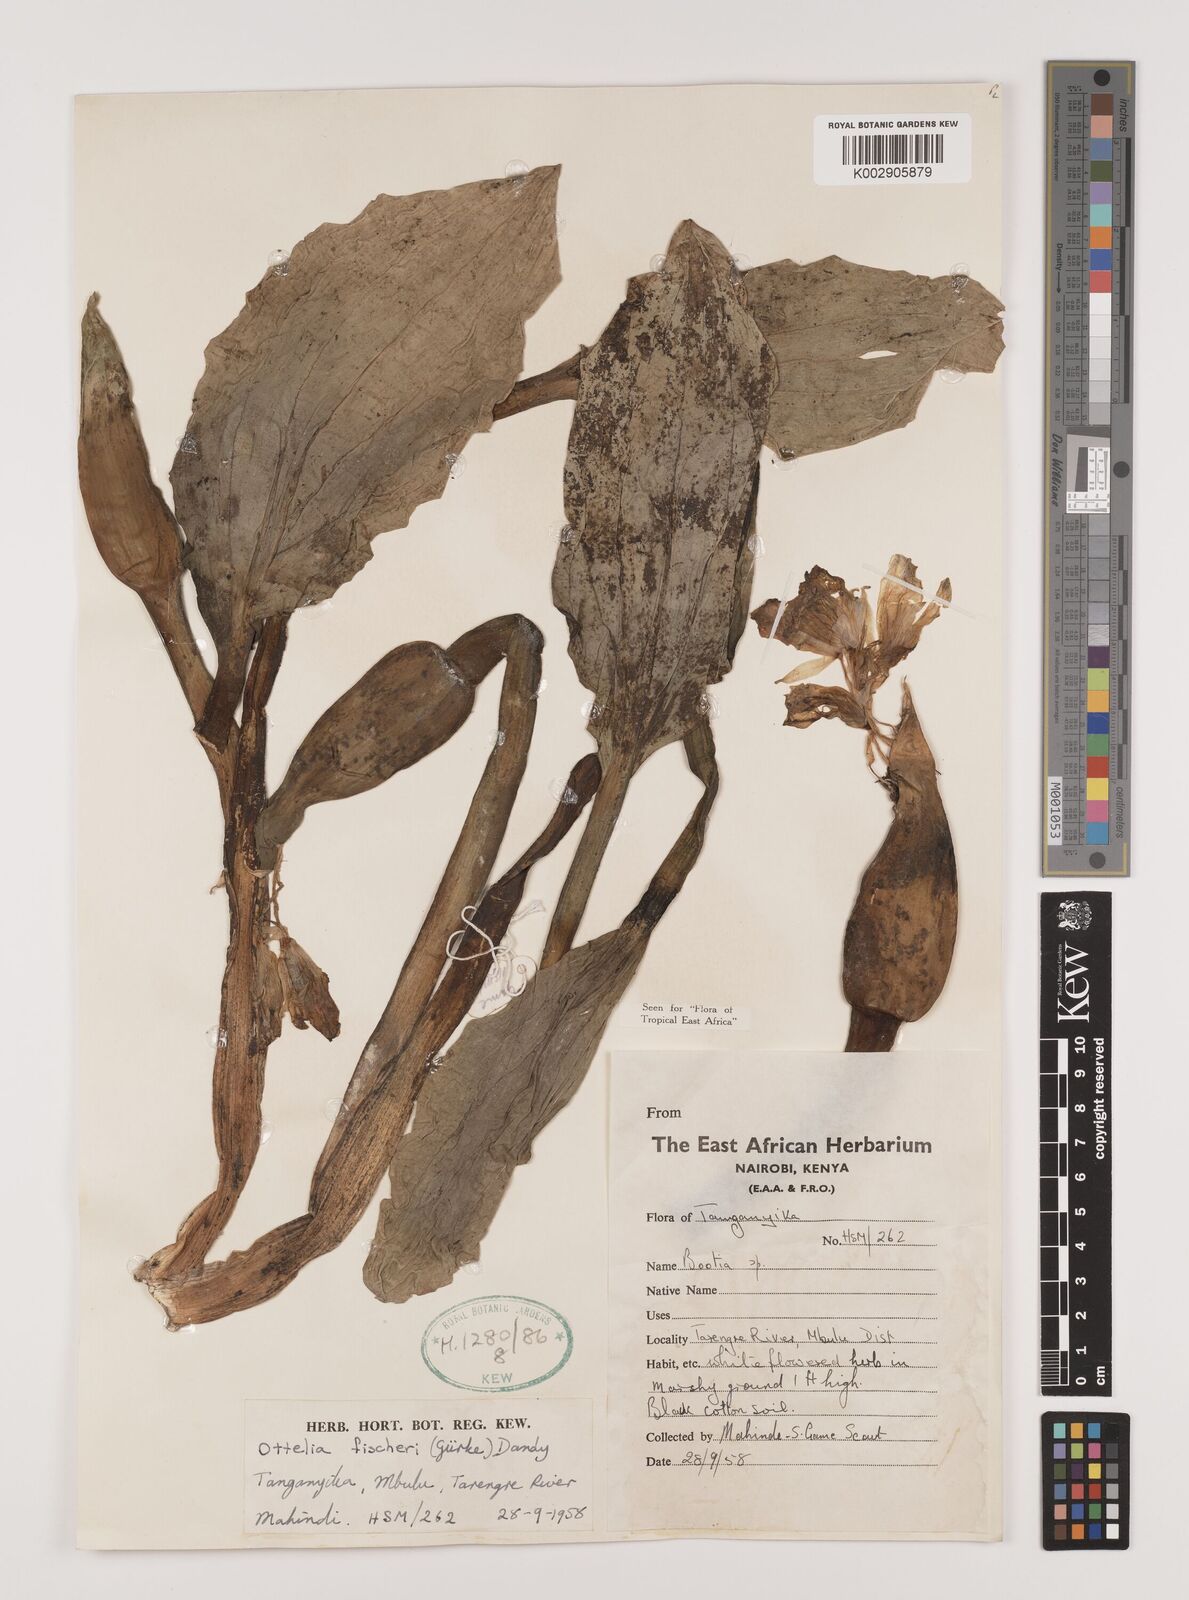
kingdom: Plantae
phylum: Tracheophyta
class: Liliopsida
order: Alismatales
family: Hydrocharitaceae
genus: Ottelia
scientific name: Ottelia fischeri
